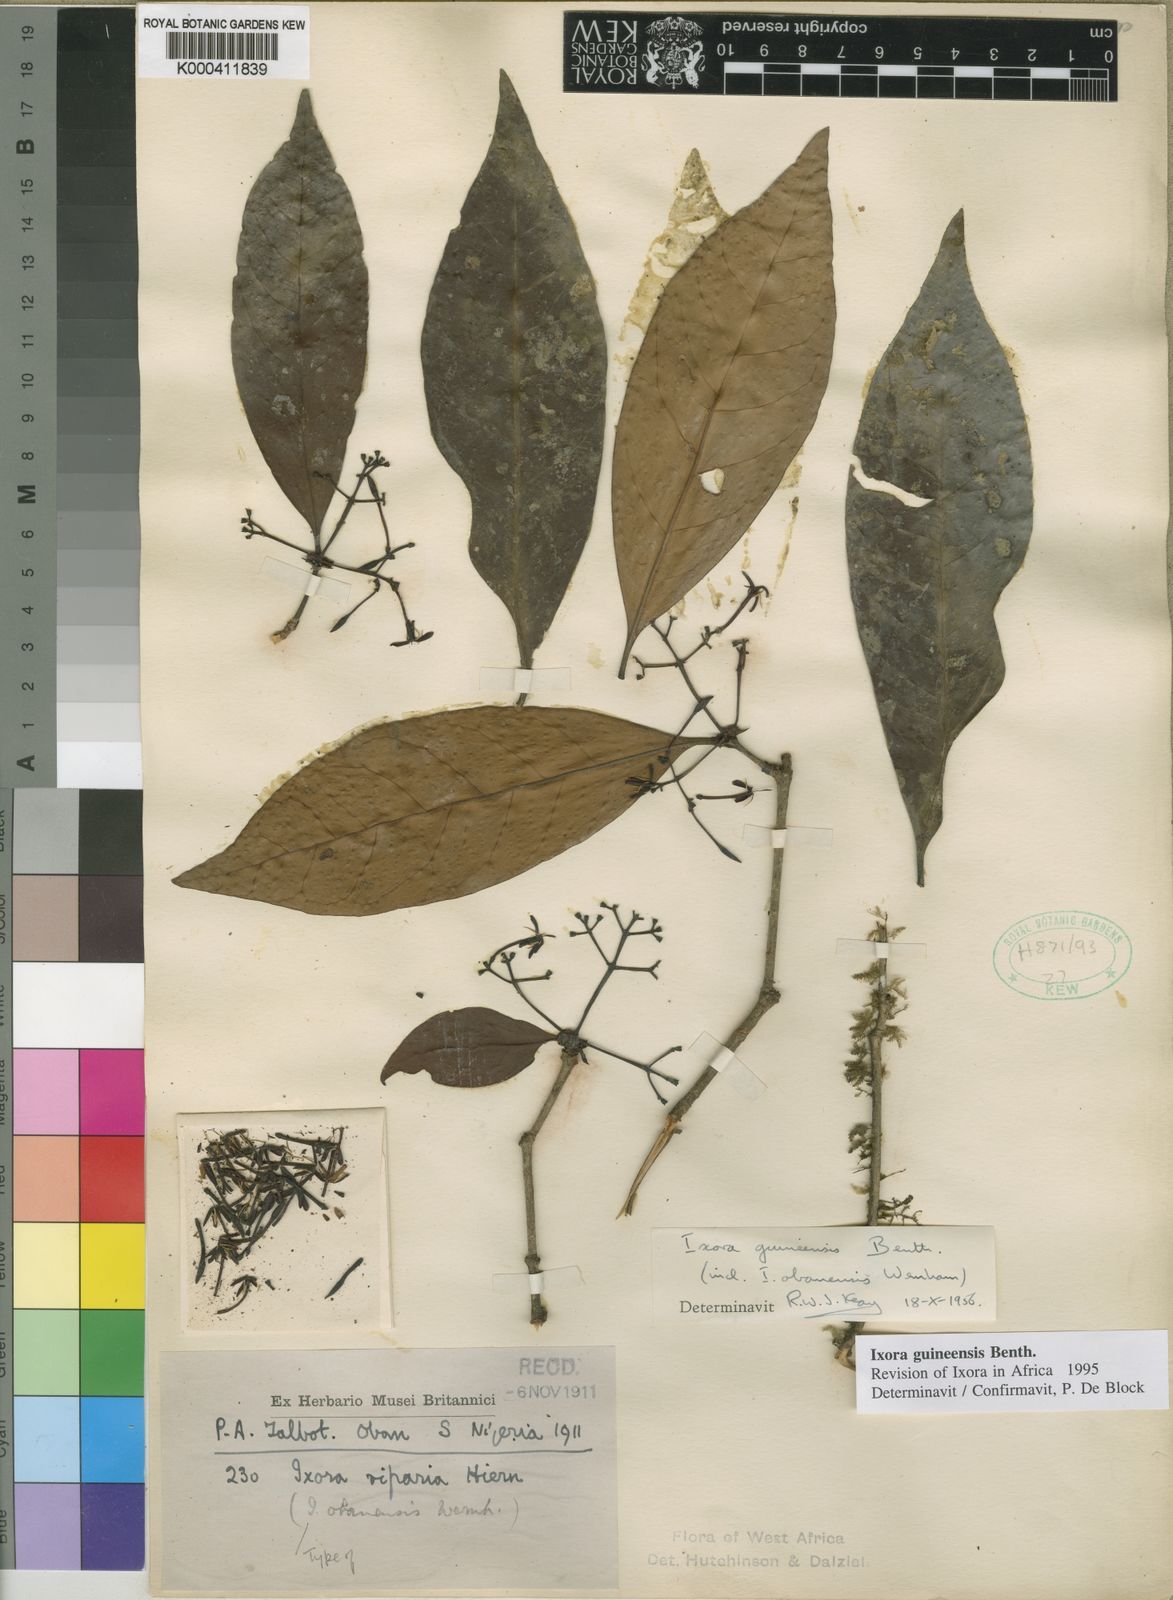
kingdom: Plantae
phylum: Tracheophyta
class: Magnoliopsida
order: Gentianales
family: Rubiaceae
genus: Ixora
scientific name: Ixora guineensis
